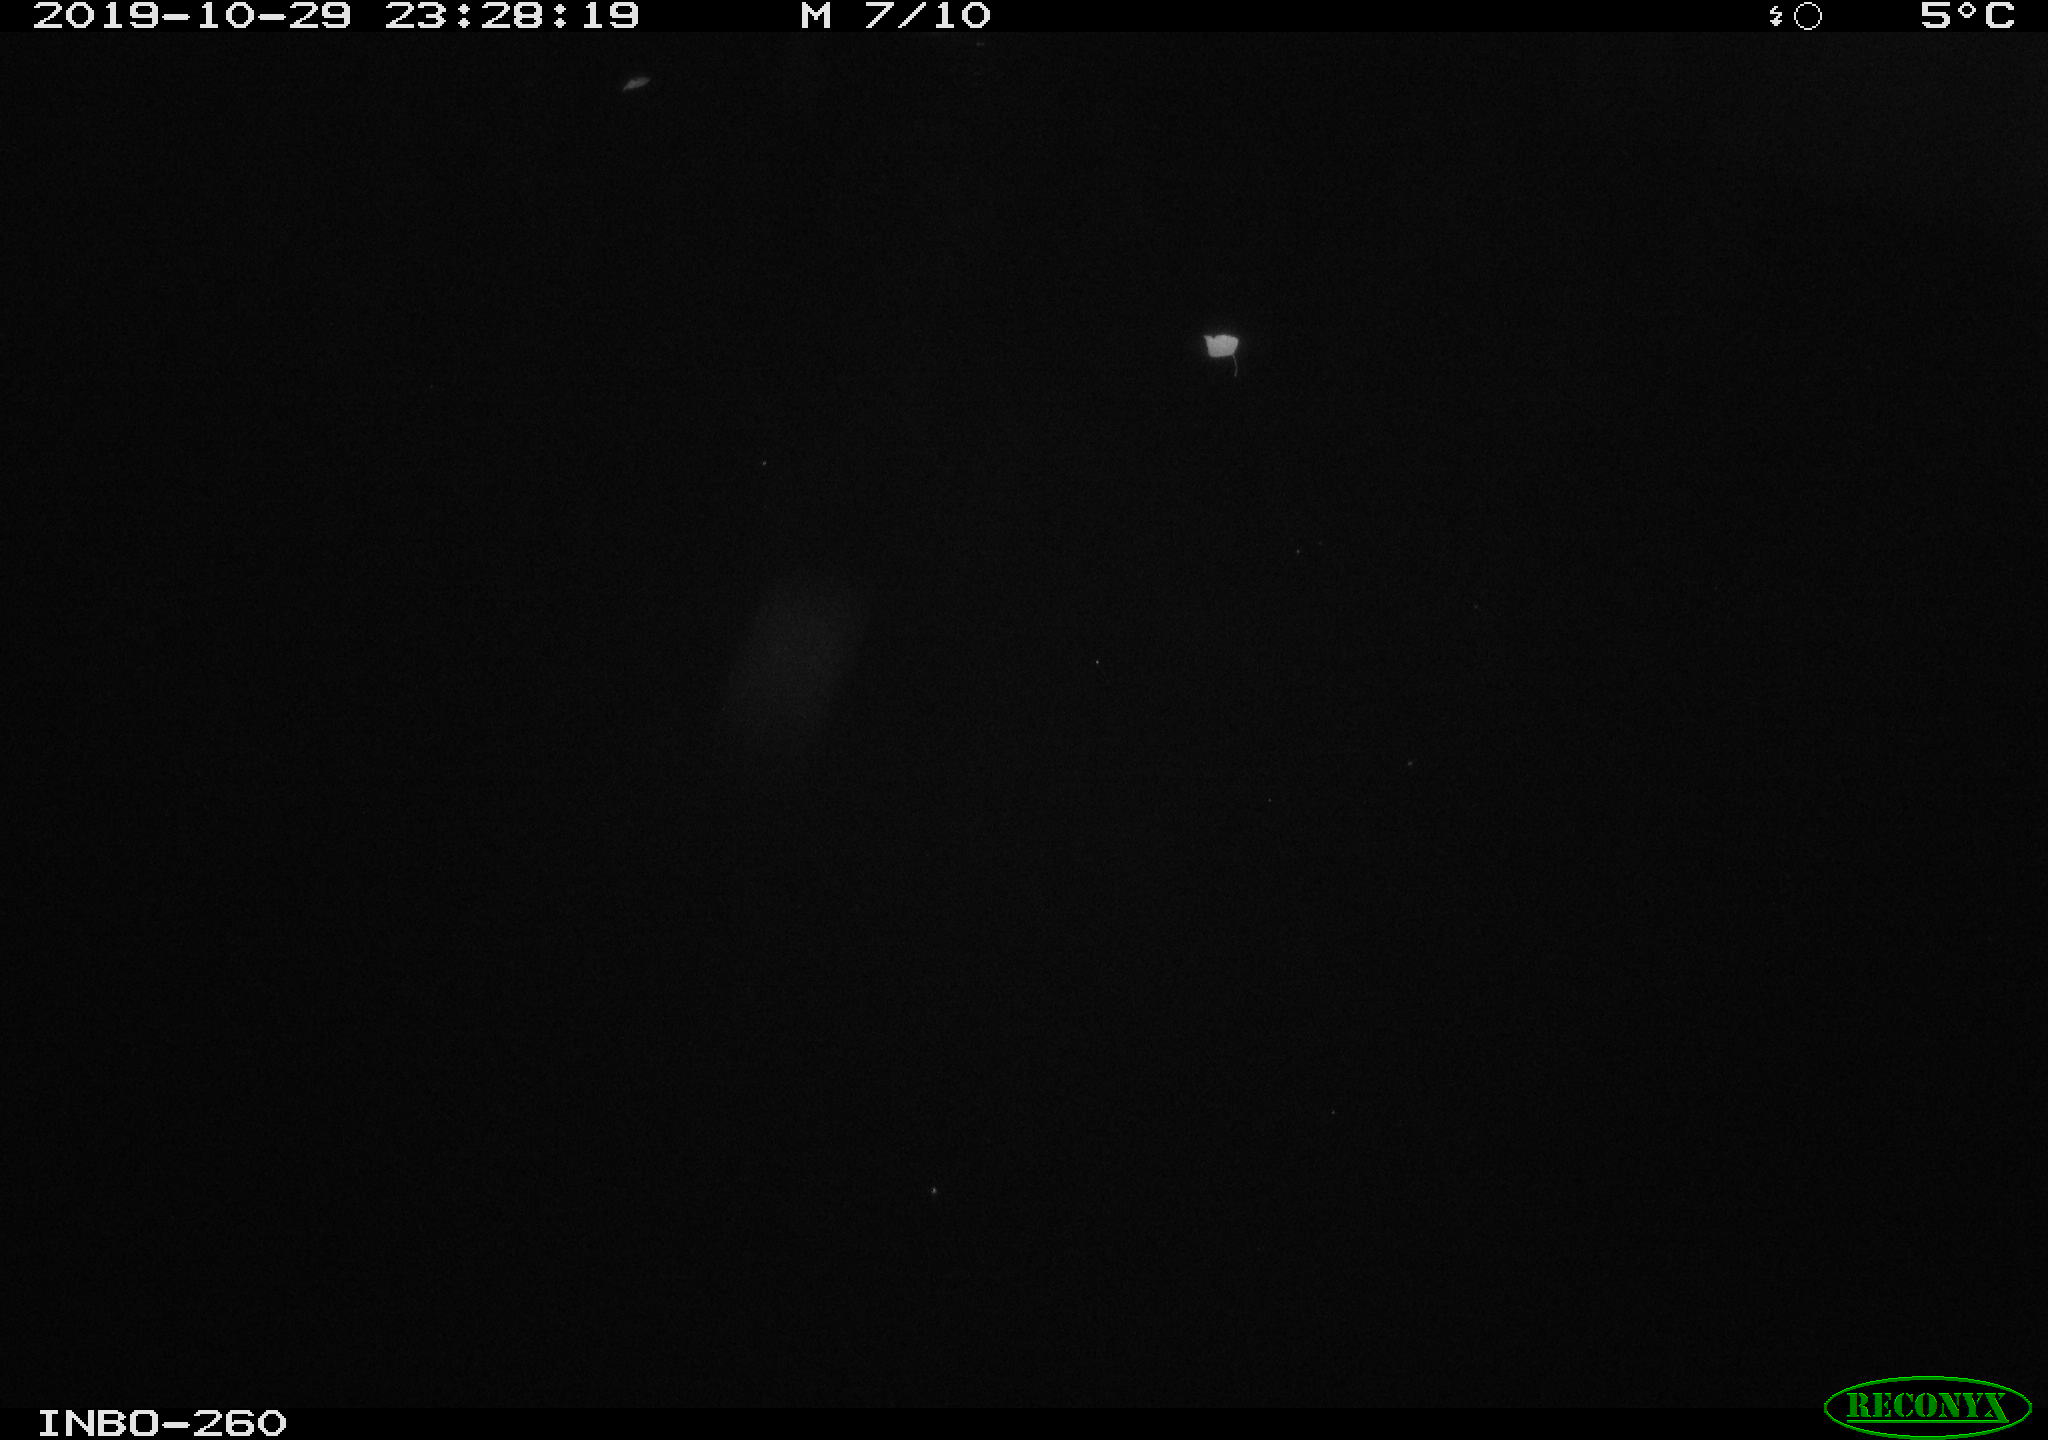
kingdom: Animalia
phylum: Chordata
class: Aves
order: Anseriformes
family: Anatidae
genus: Anas
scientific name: Anas platyrhynchos
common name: Mallard
